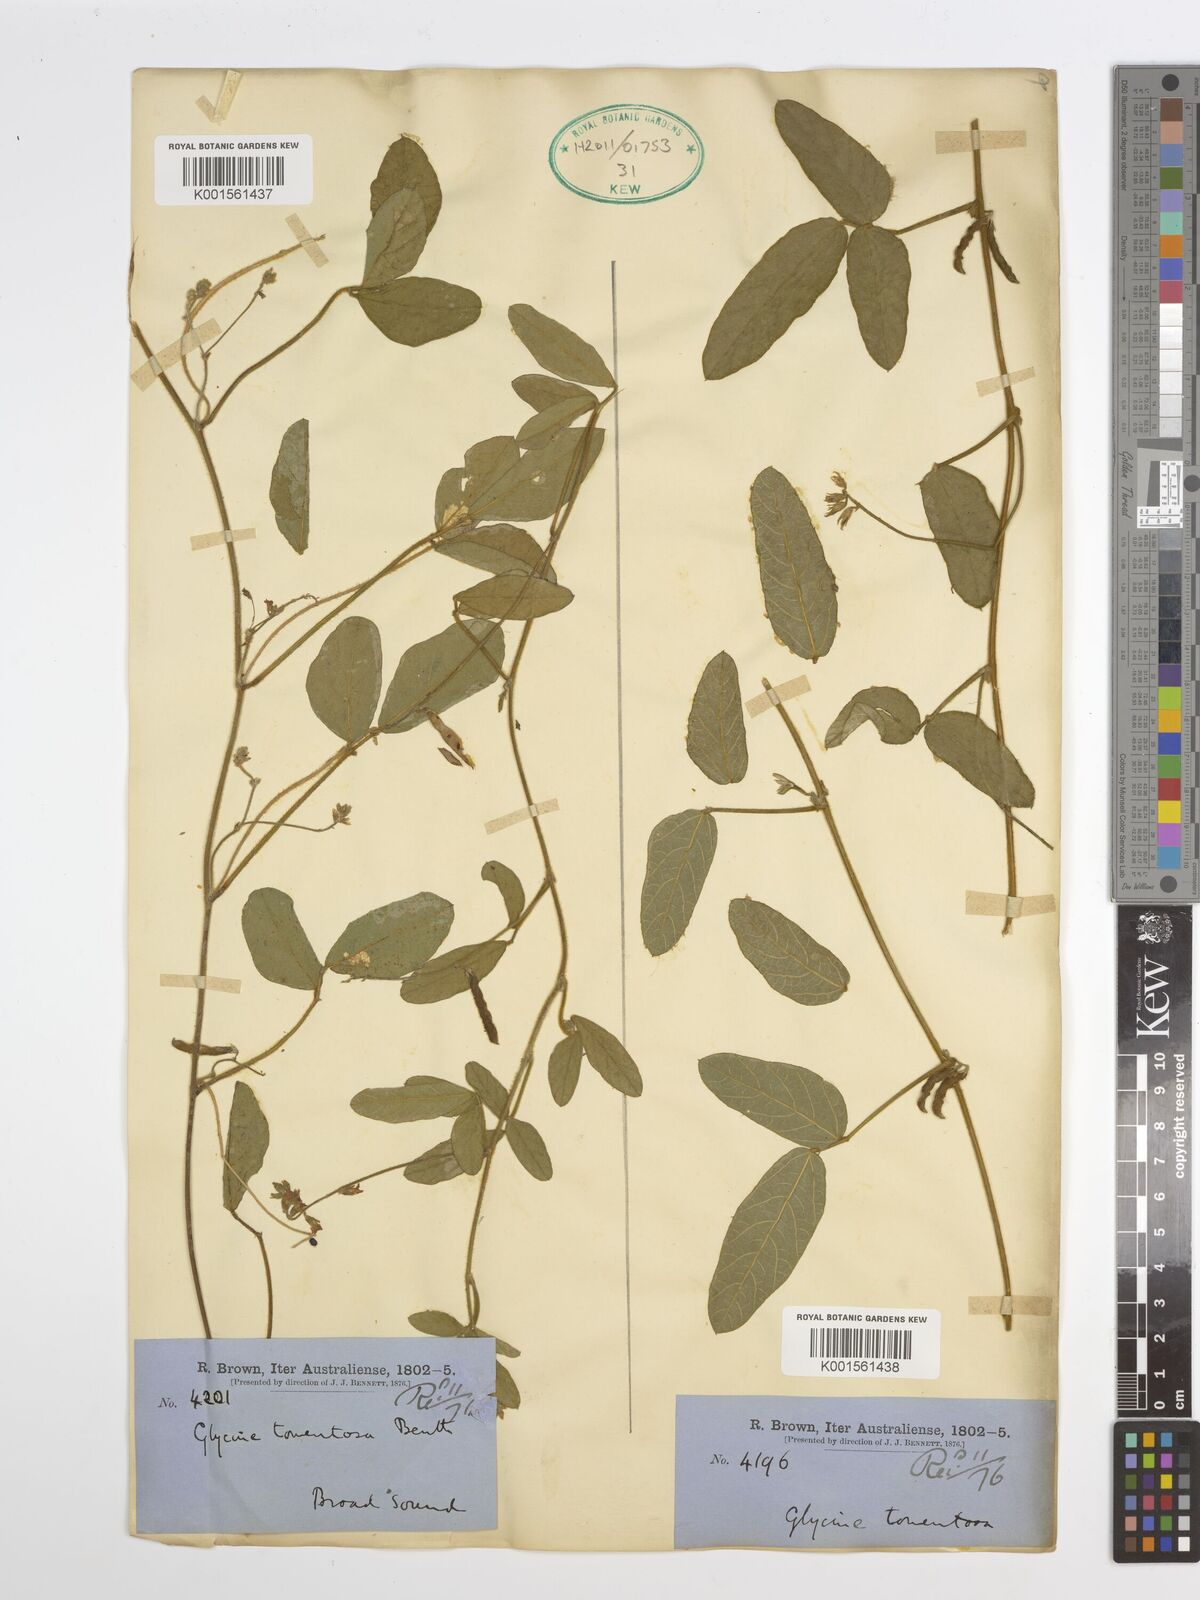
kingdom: Plantae
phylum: Tracheophyta
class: Magnoliopsida
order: Fabales
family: Fabaceae
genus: Glycine
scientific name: Glycine tomentella
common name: Hairy glycine
